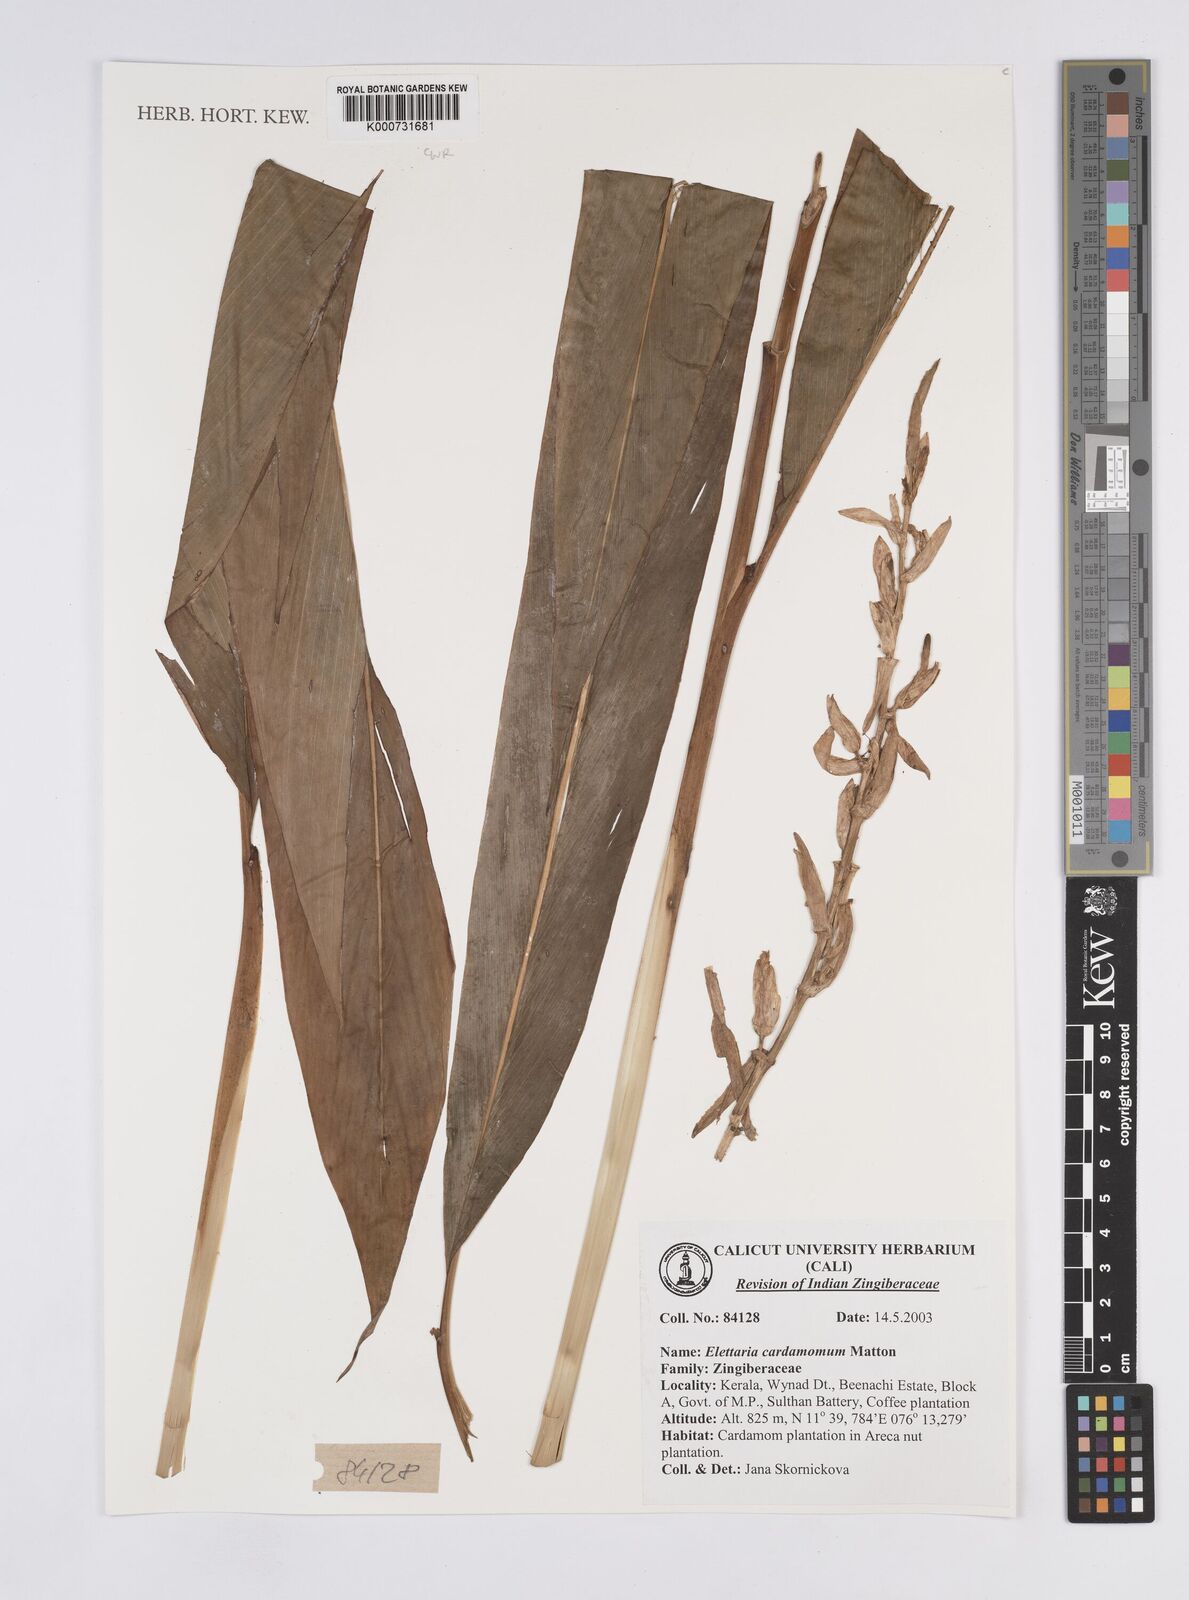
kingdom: Plantae
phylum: Tracheophyta
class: Liliopsida
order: Zingiberales
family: Zingiberaceae
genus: Elettaria
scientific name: Elettaria cardamomum
